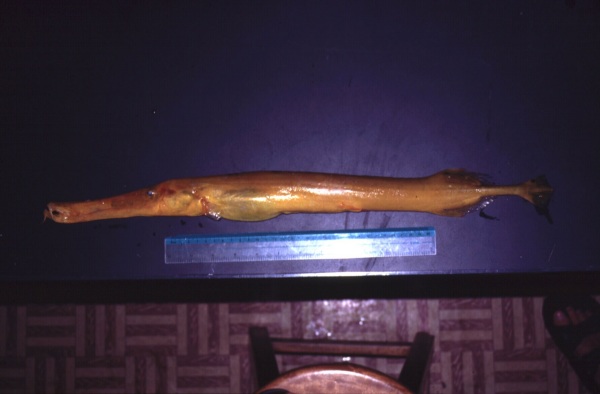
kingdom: Animalia
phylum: Chordata
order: Syngnathiformes
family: Aulostomidae
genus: Aulostomus
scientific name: Aulostomus chinensis
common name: Chinese trumpetfish
